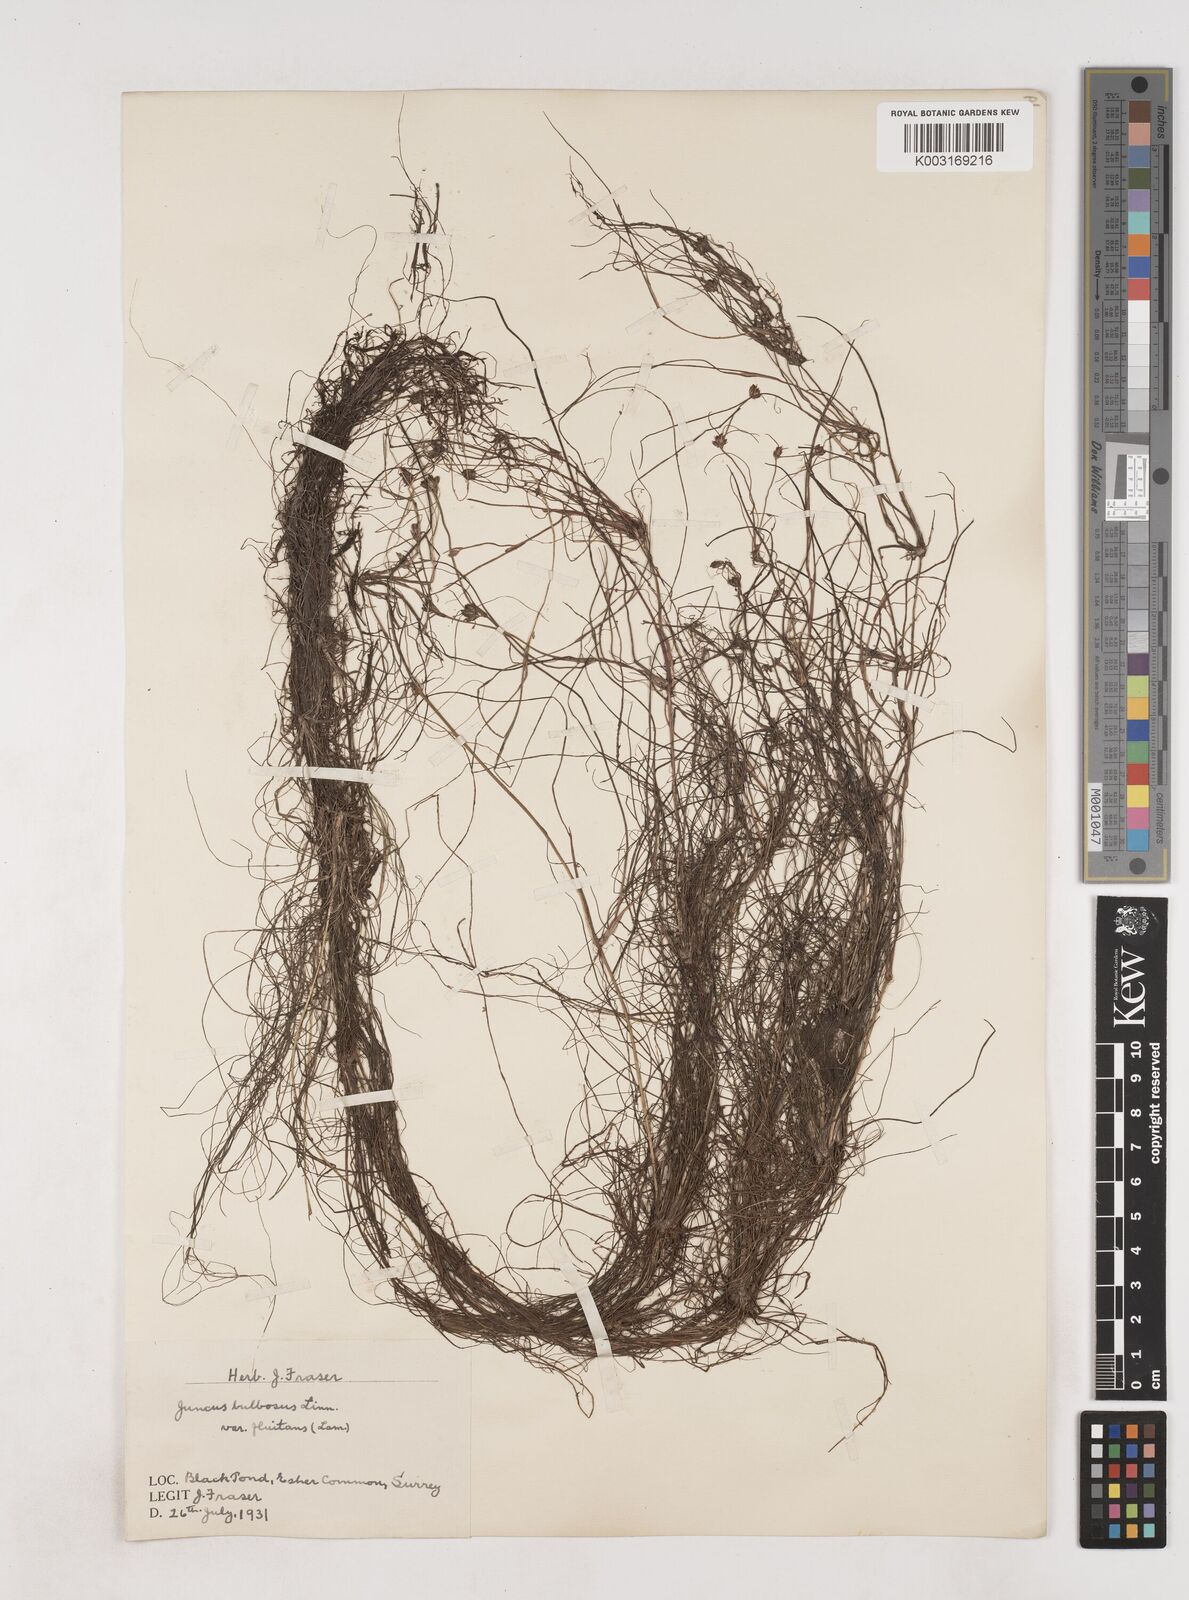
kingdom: Plantae
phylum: Tracheophyta
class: Liliopsida
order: Poales
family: Juncaceae
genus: Juncus
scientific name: Juncus bulbosus
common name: Bulbous rush
